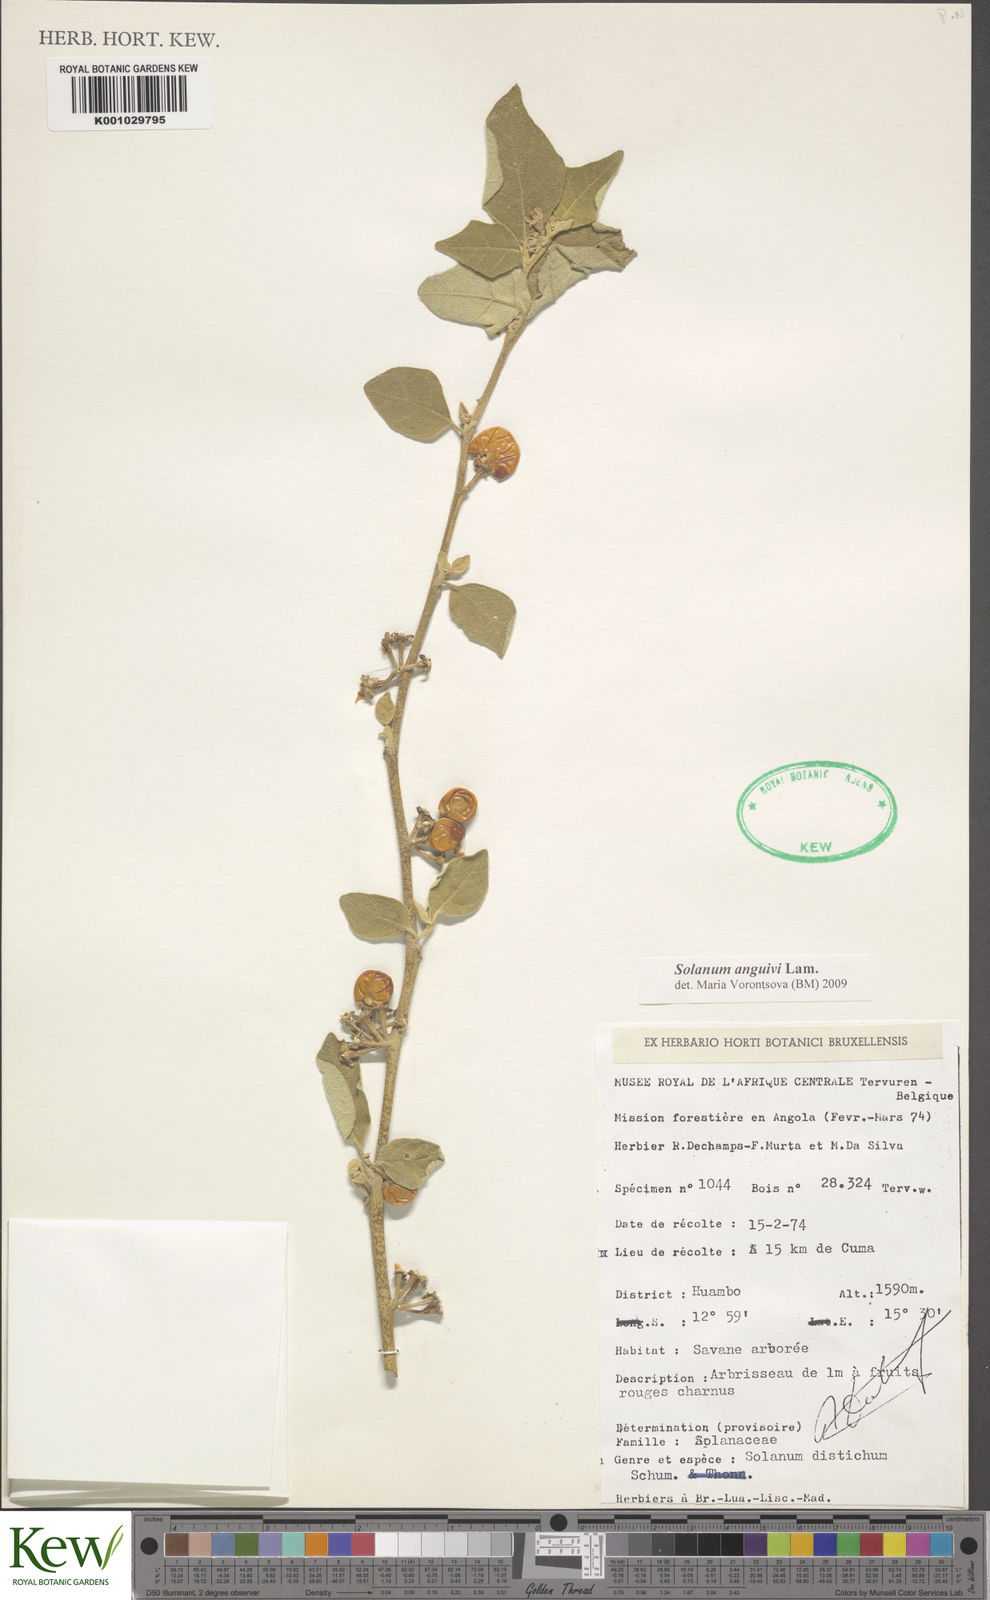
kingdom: Plantae
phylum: Tracheophyta
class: Magnoliopsida
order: Solanales
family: Solanaceae
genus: Solanum
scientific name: Solanum anguivi
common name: Forest bitterberry
